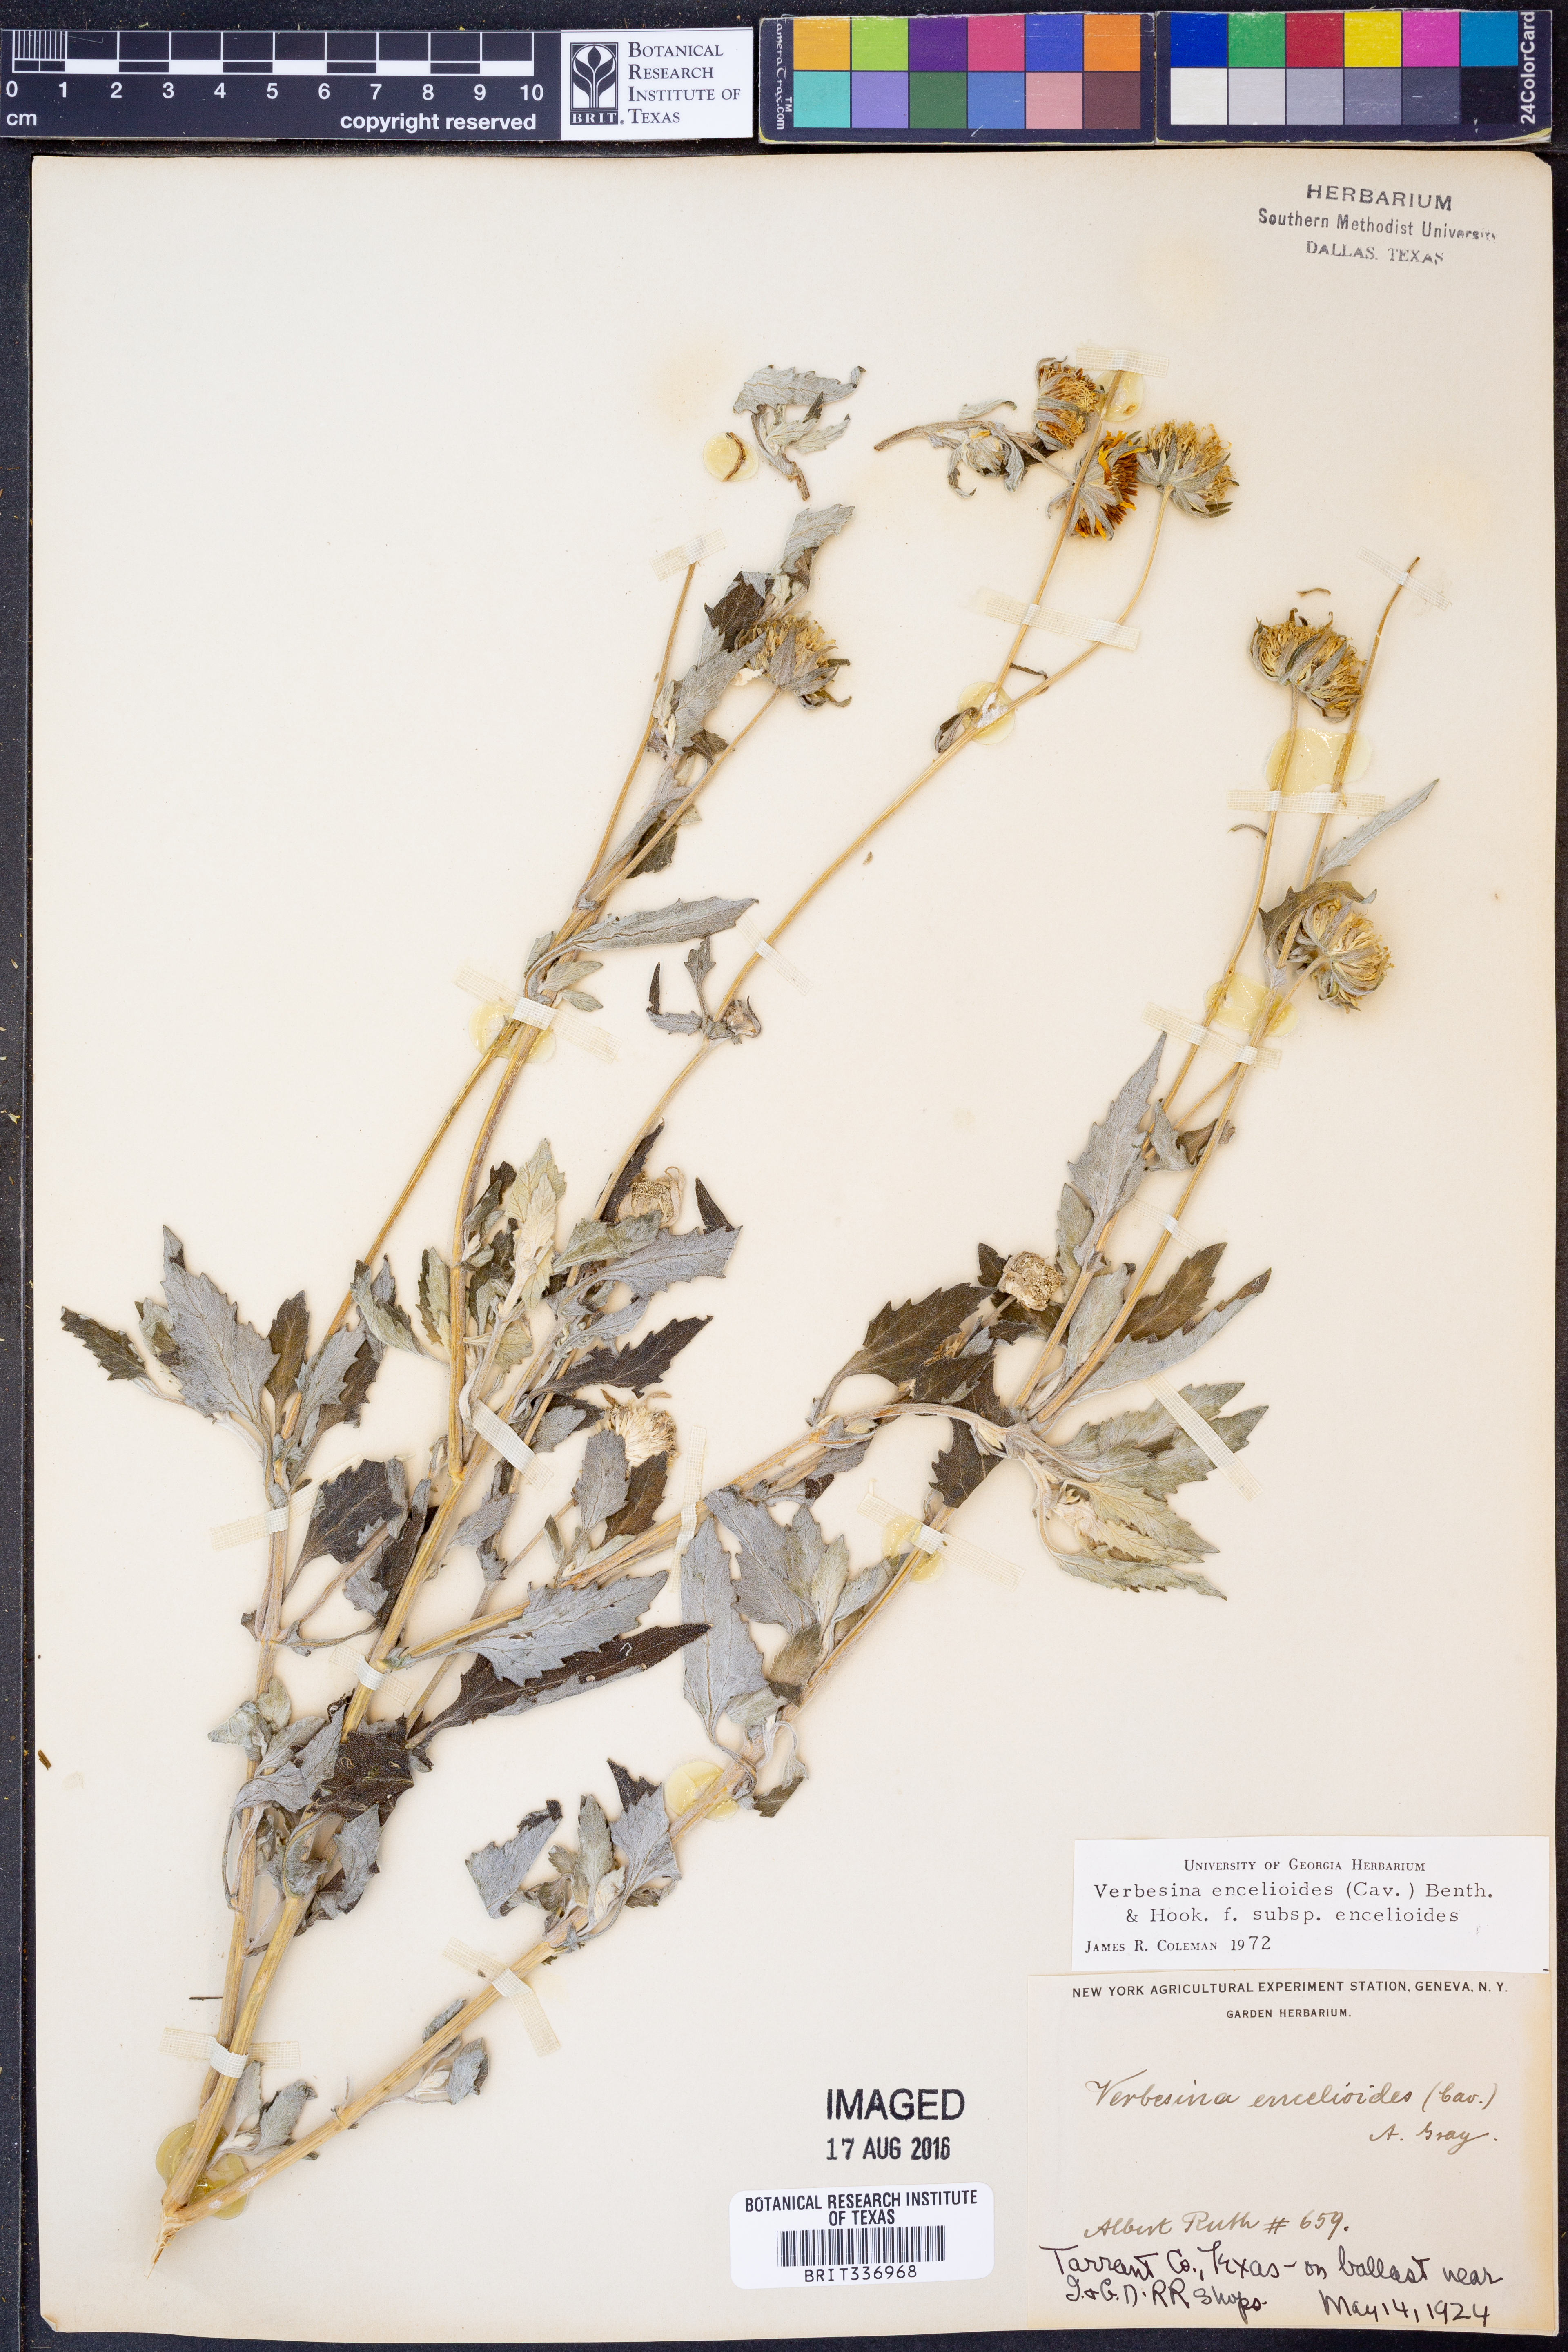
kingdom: Plantae
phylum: Tracheophyta
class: Magnoliopsida
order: Asterales
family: Asteraceae
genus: Verbesina
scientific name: Verbesina encelioides
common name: Golden crownbeard
